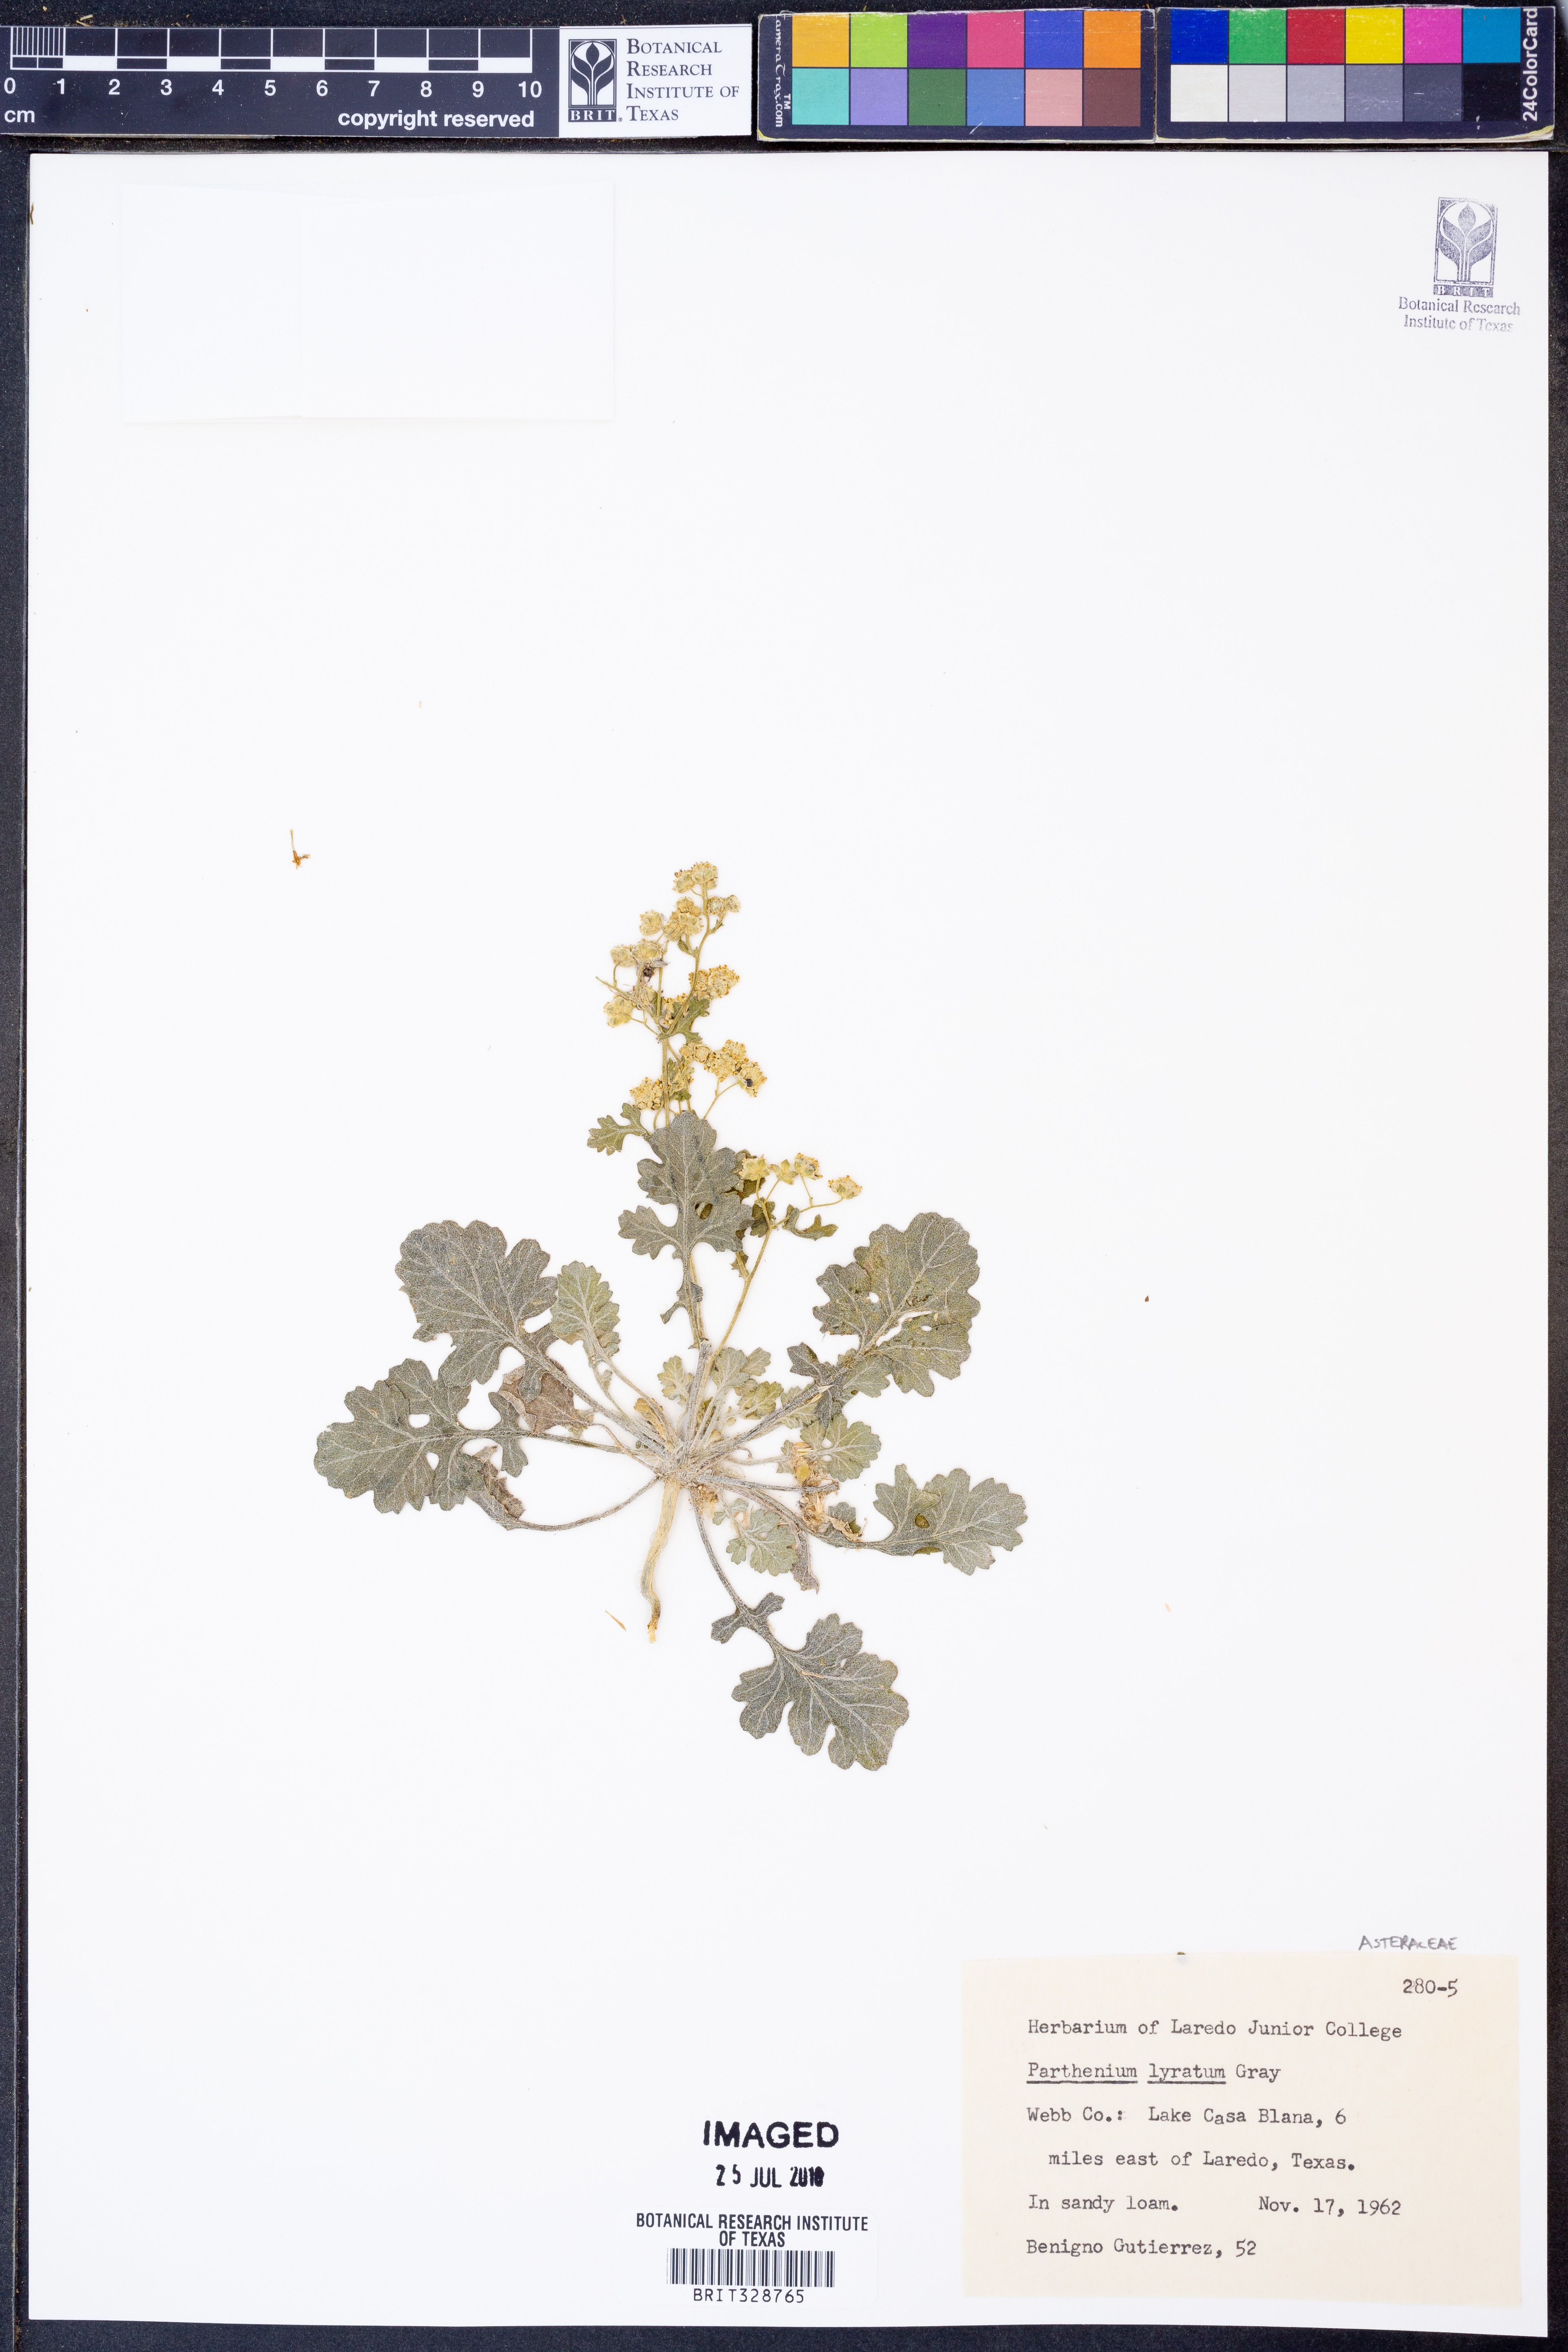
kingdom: Plantae
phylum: Tracheophyta
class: Magnoliopsida
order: Asterales
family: Asteraceae
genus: Parthenium
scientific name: Parthenium confertum
